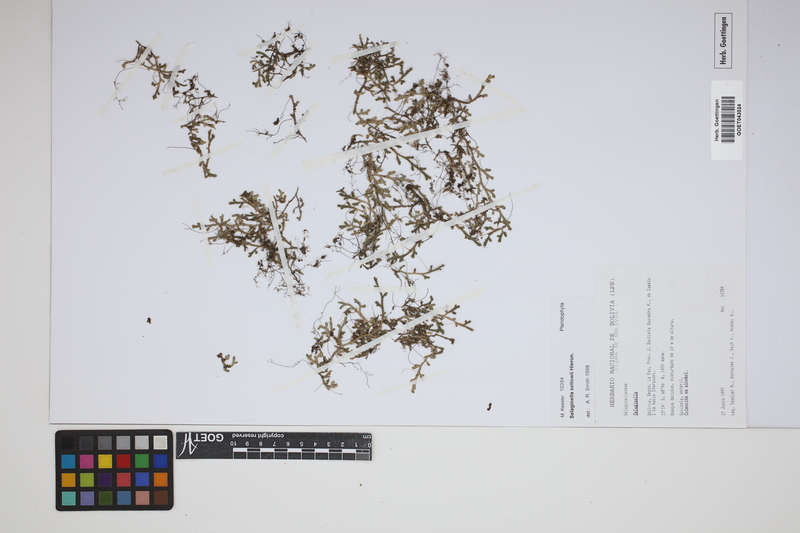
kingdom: Plantae
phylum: Tracheophyta
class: Lycopodiopsida
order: Selaginellales
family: Selaginellaceae
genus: Selaginella
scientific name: Selaginella sellowii
